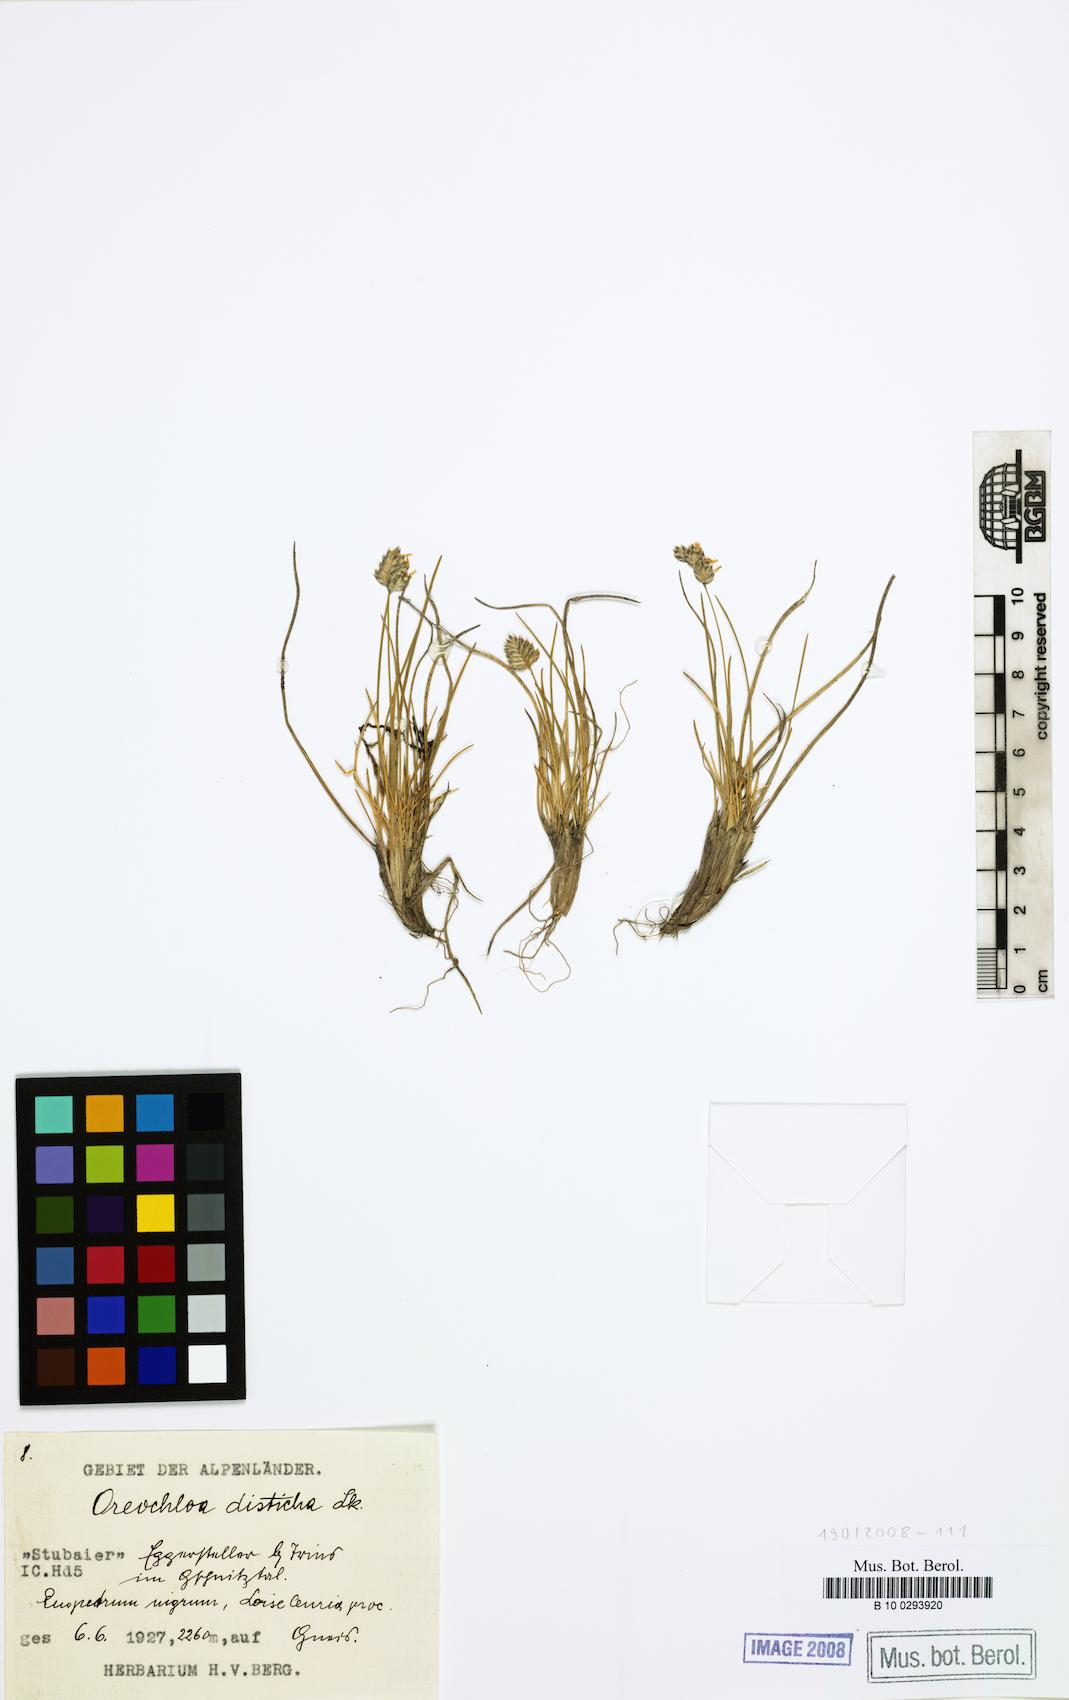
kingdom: Plantae
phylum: Tracheophyta
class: Liliopsida
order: Poales
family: Poaceae
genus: Oreochloa
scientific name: Oreochloa disticha
